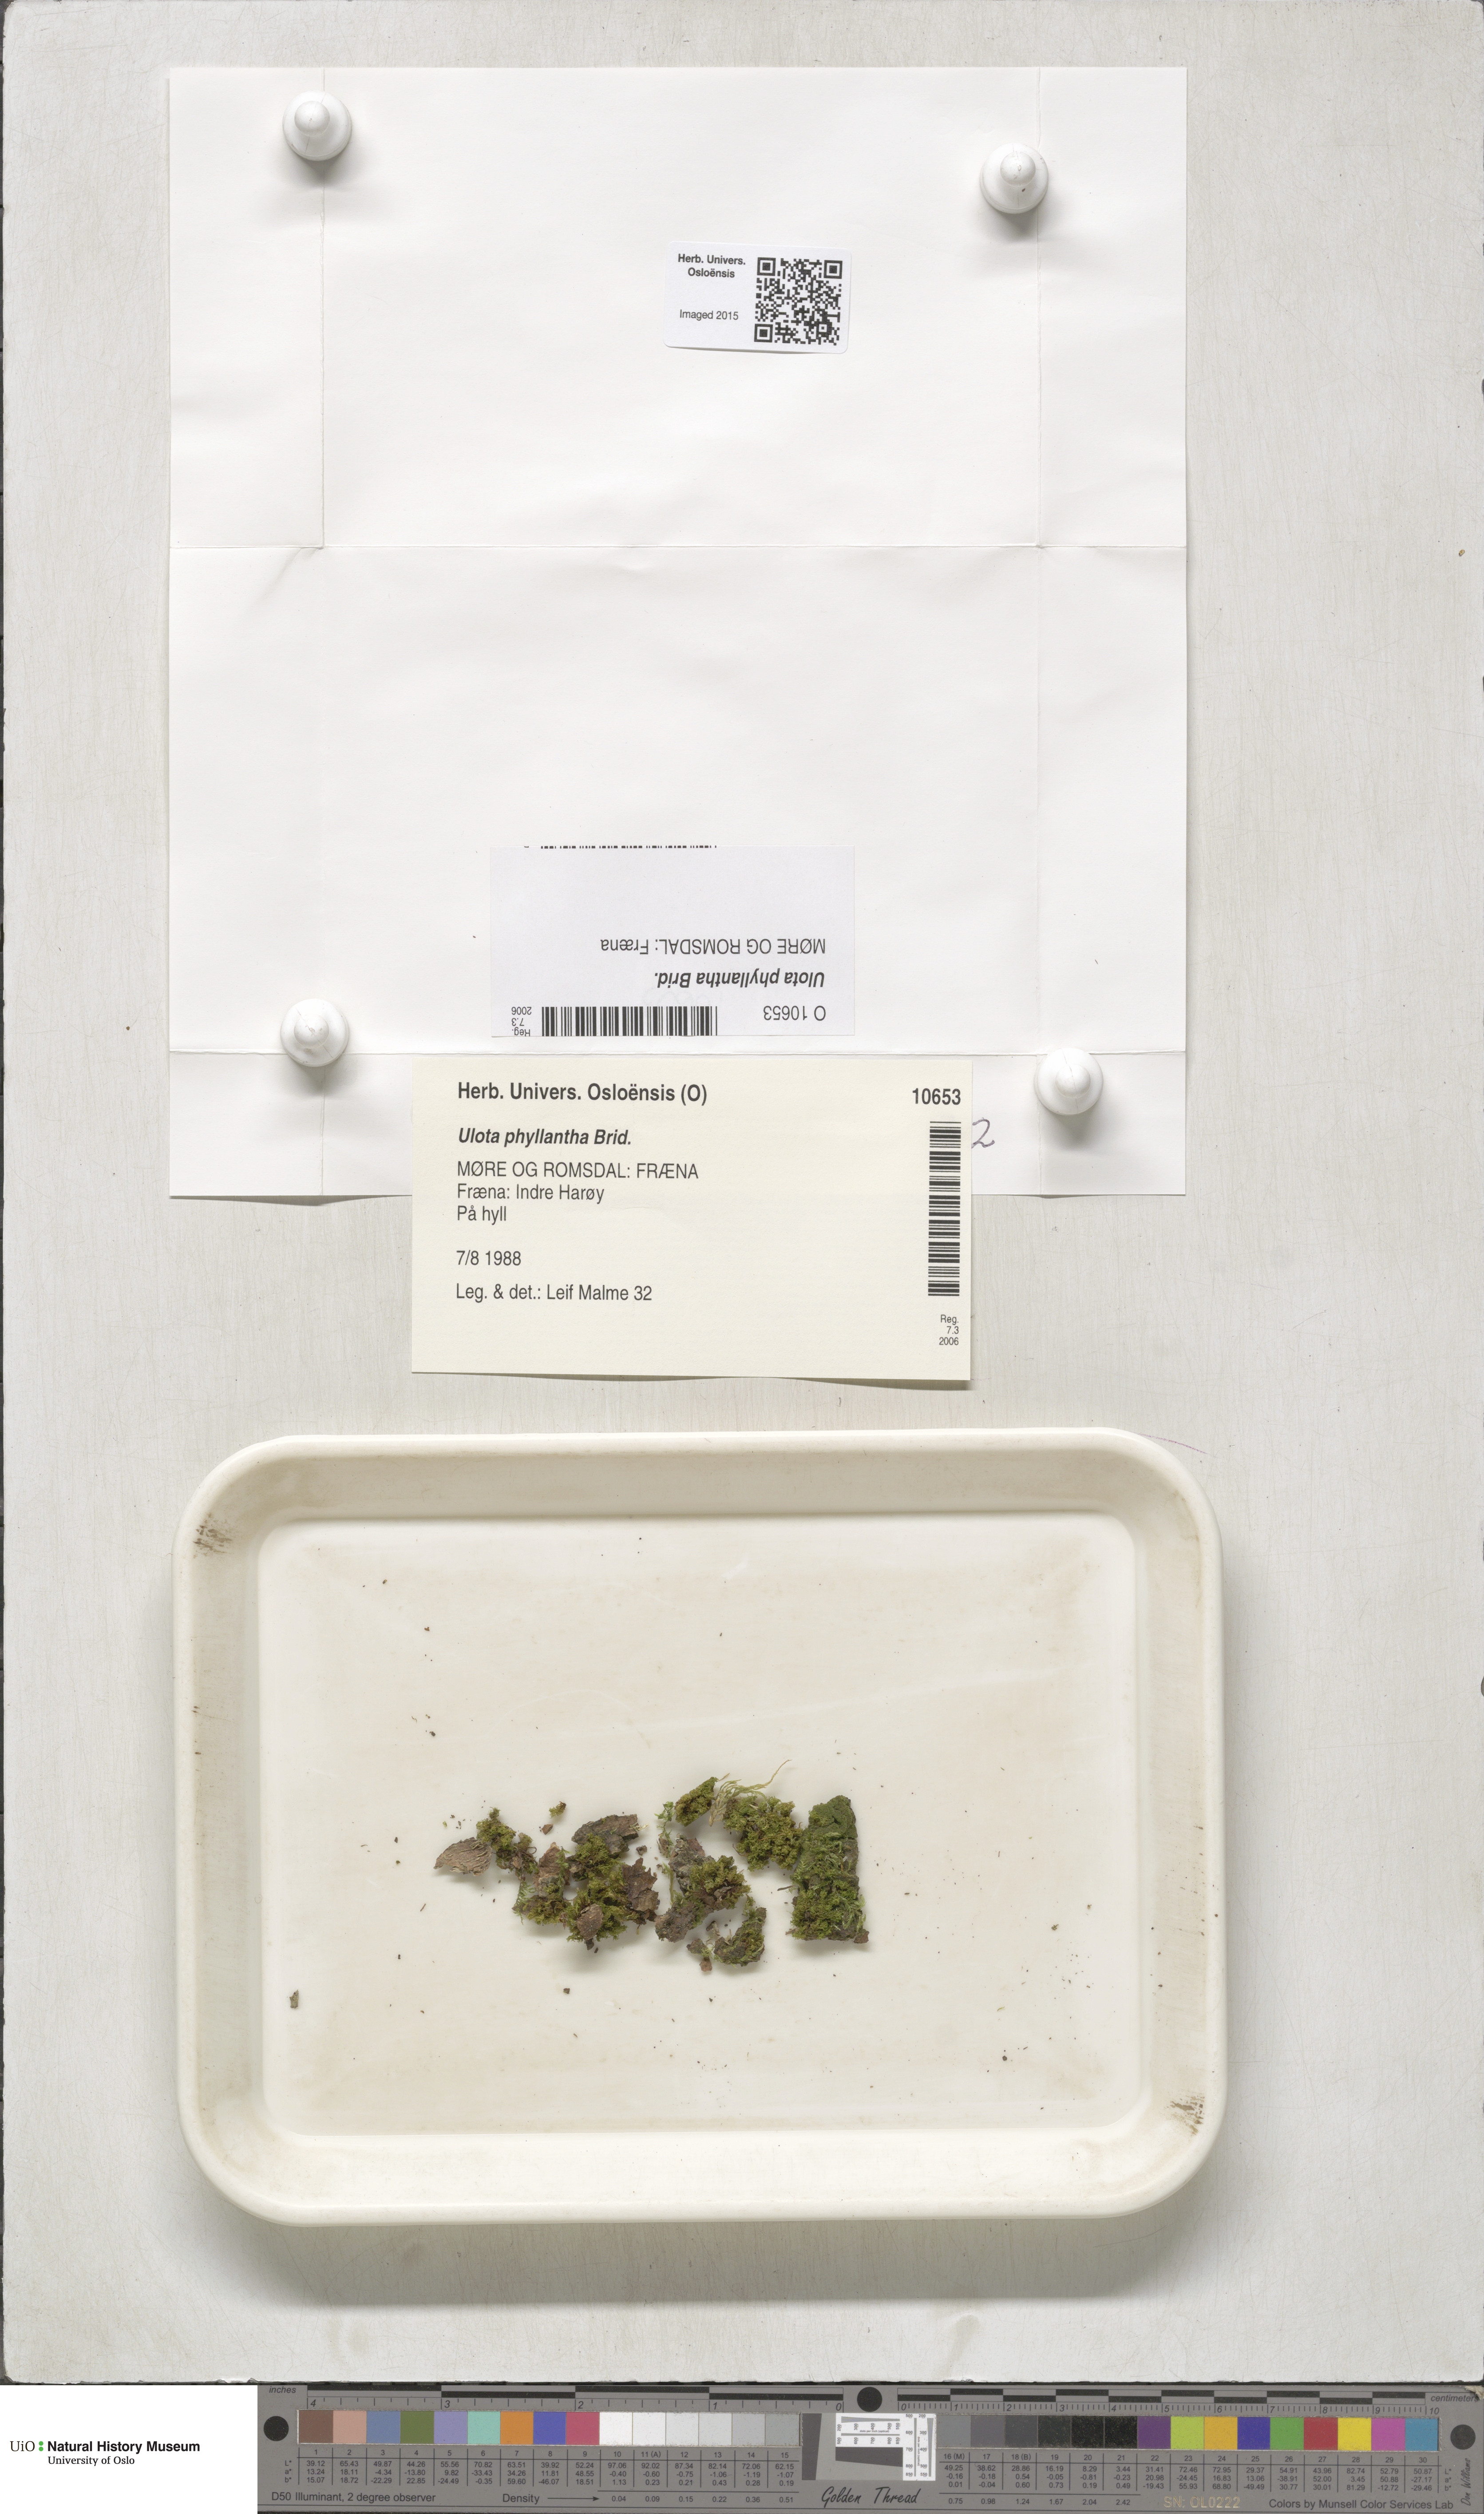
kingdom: Plantae
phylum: Bryophyta
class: Bryopsida
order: Orthotrichales
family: Orthotrichaceae
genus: Plenogemma
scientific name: Plenogemma phyllantha
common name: Frizzled pincushion
